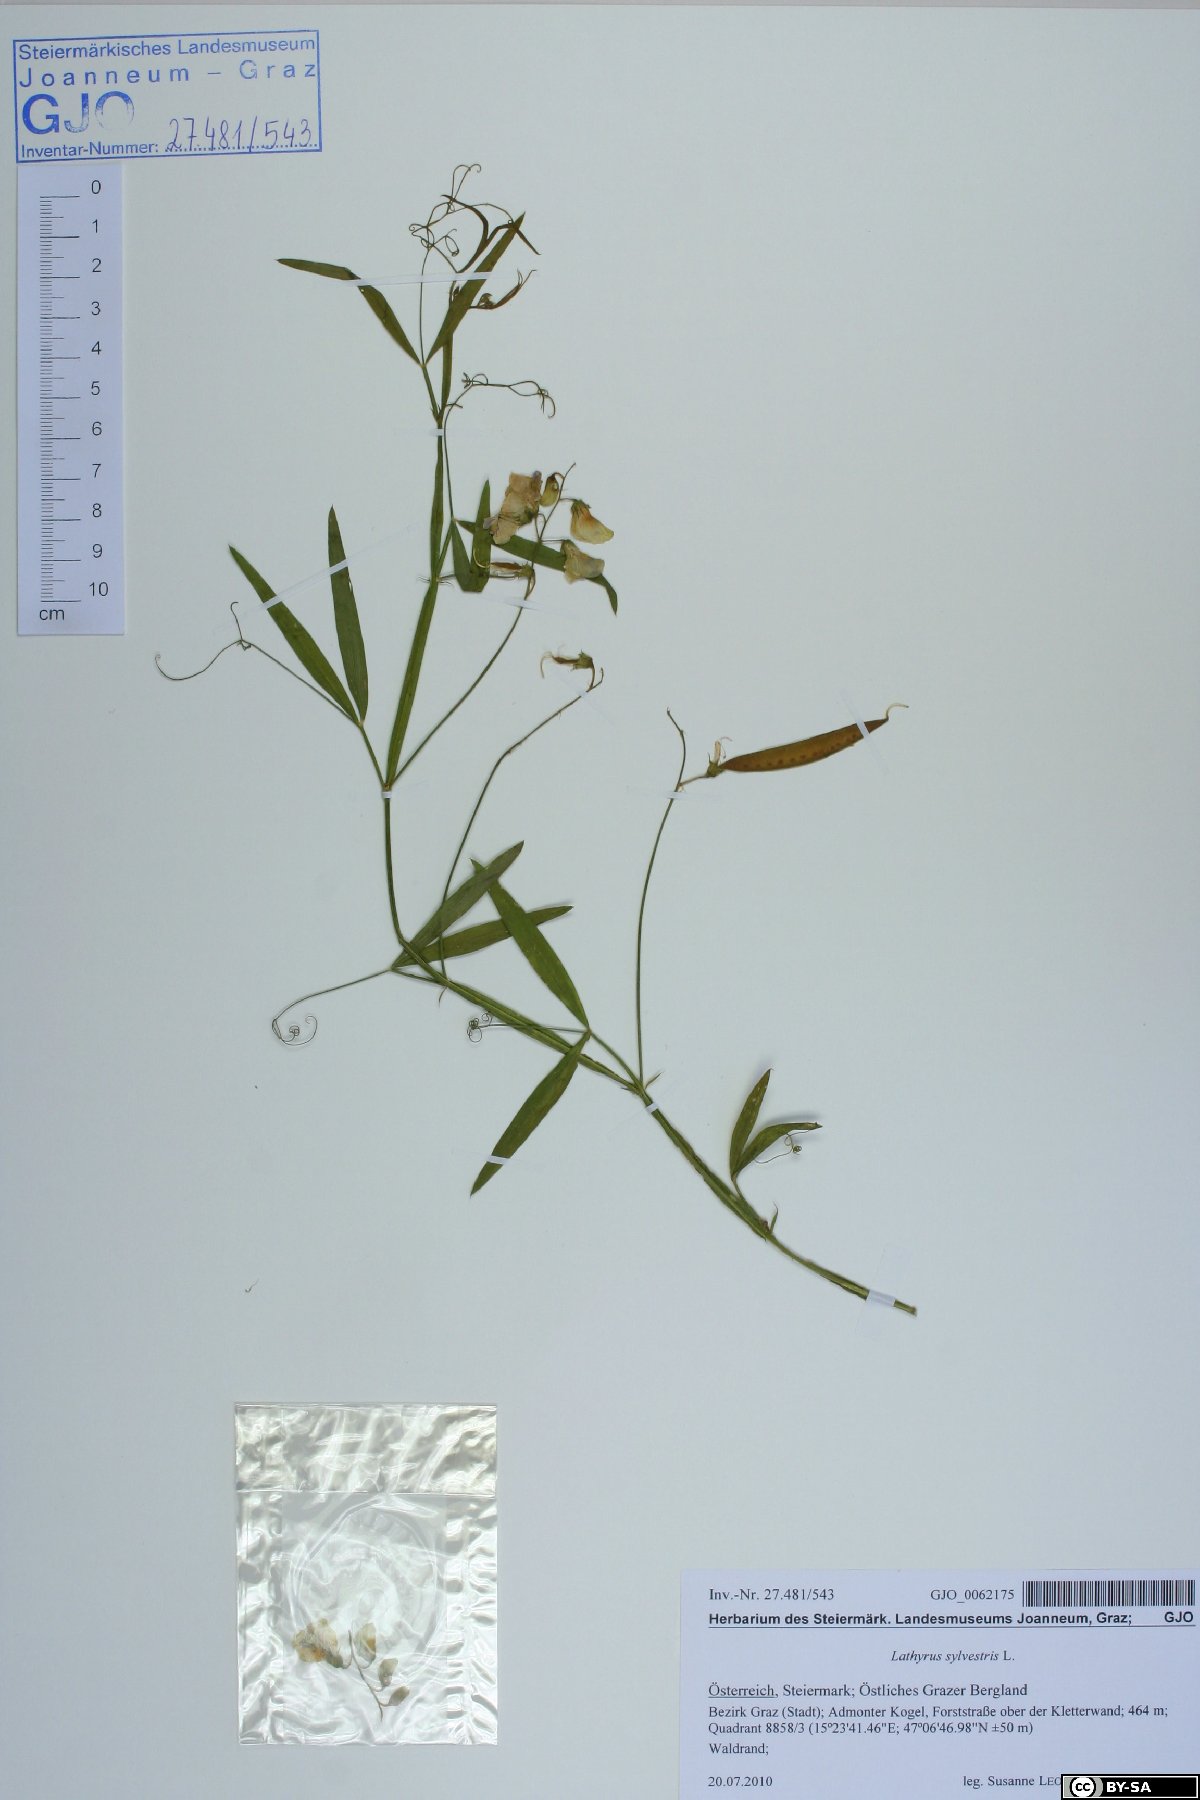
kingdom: Plantae
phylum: Tracheophyta
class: Magnoliopsida
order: Fabales
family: Fabaceae
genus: Lathyrus
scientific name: Lathyrus sylvestris
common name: Flat pea
